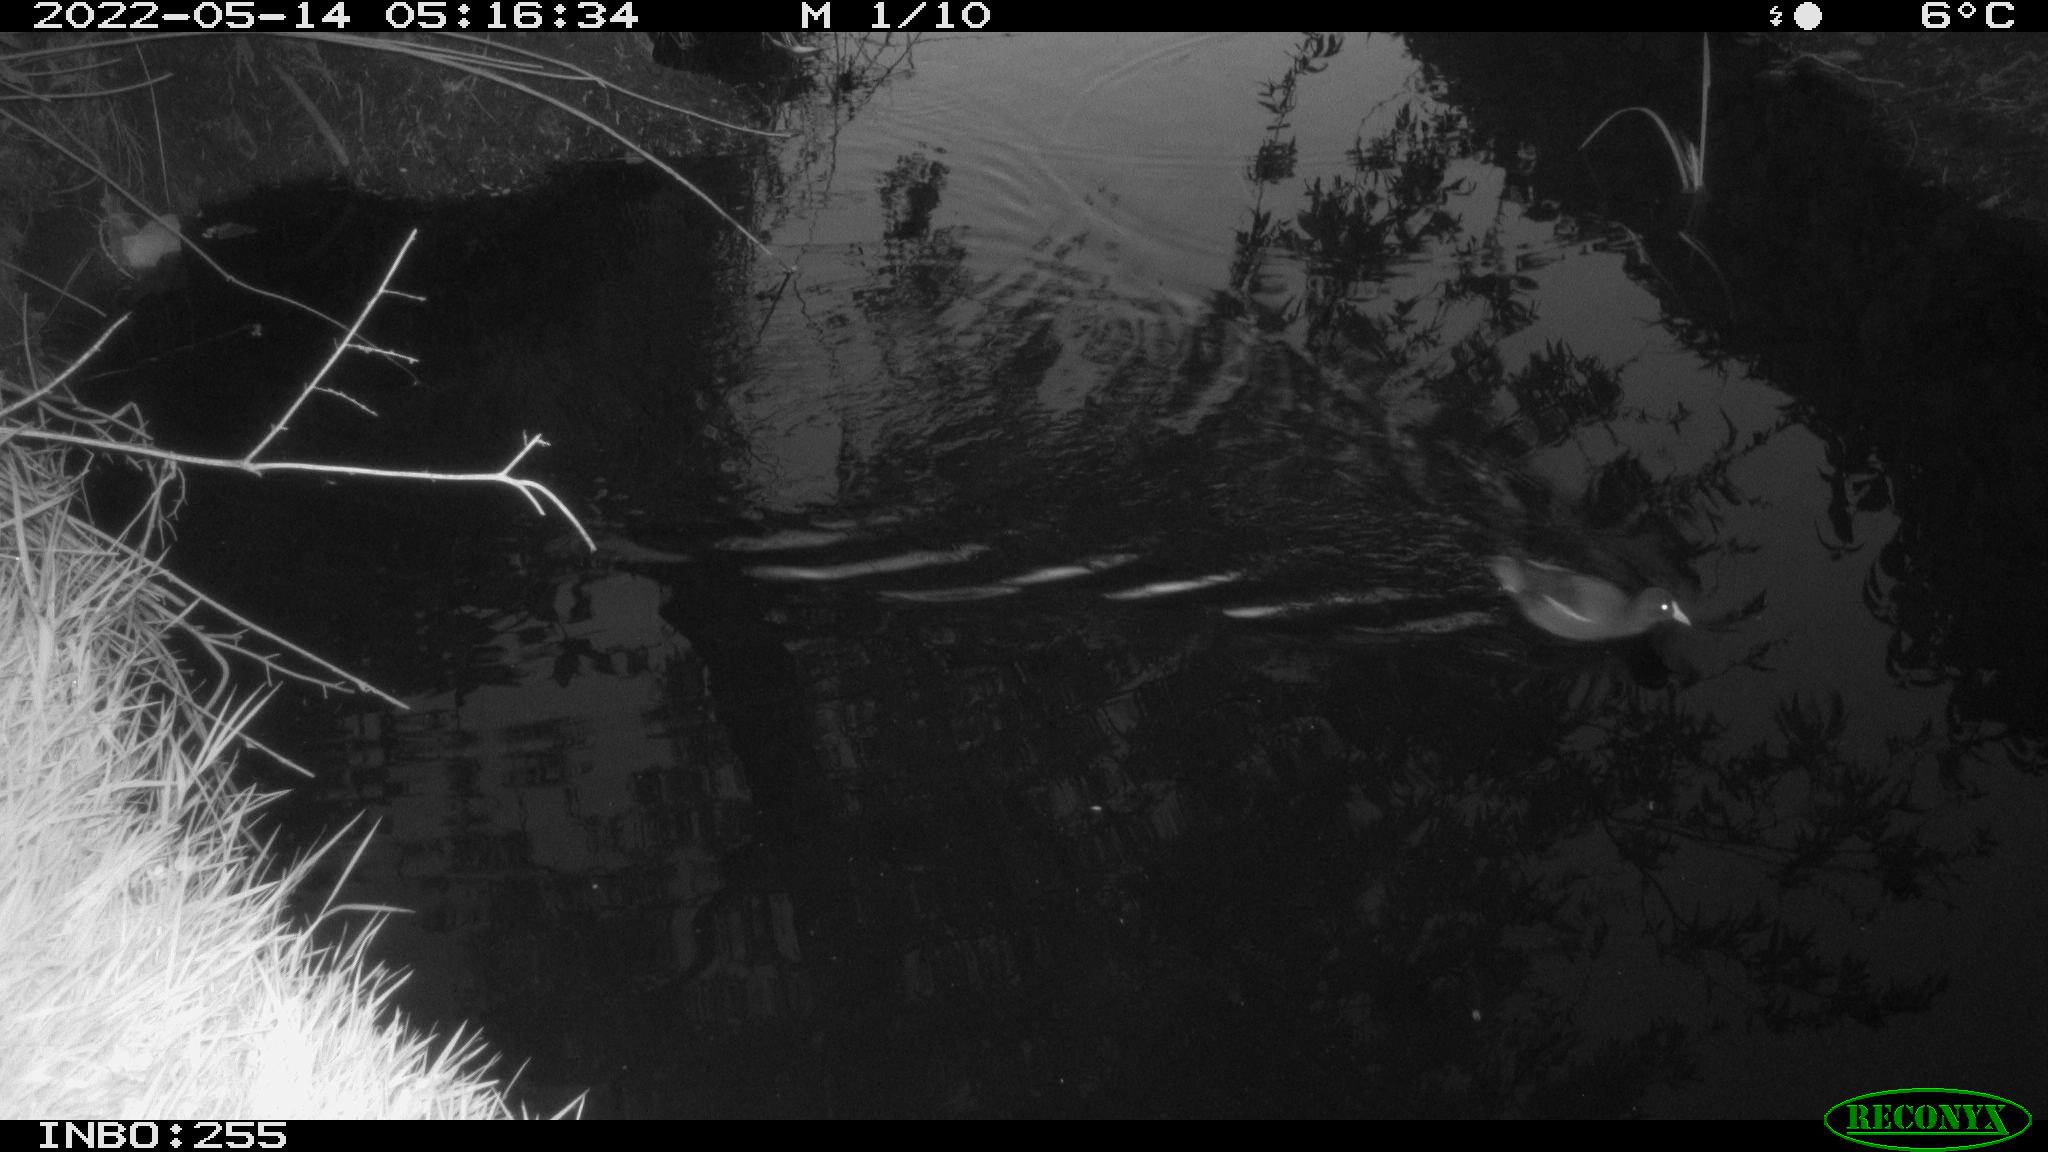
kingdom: Animalia
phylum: Chordata
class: Aves
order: Gruiformes
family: Rallidae
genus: Gallinula
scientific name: Gallinula chloropus
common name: Common moorhen
